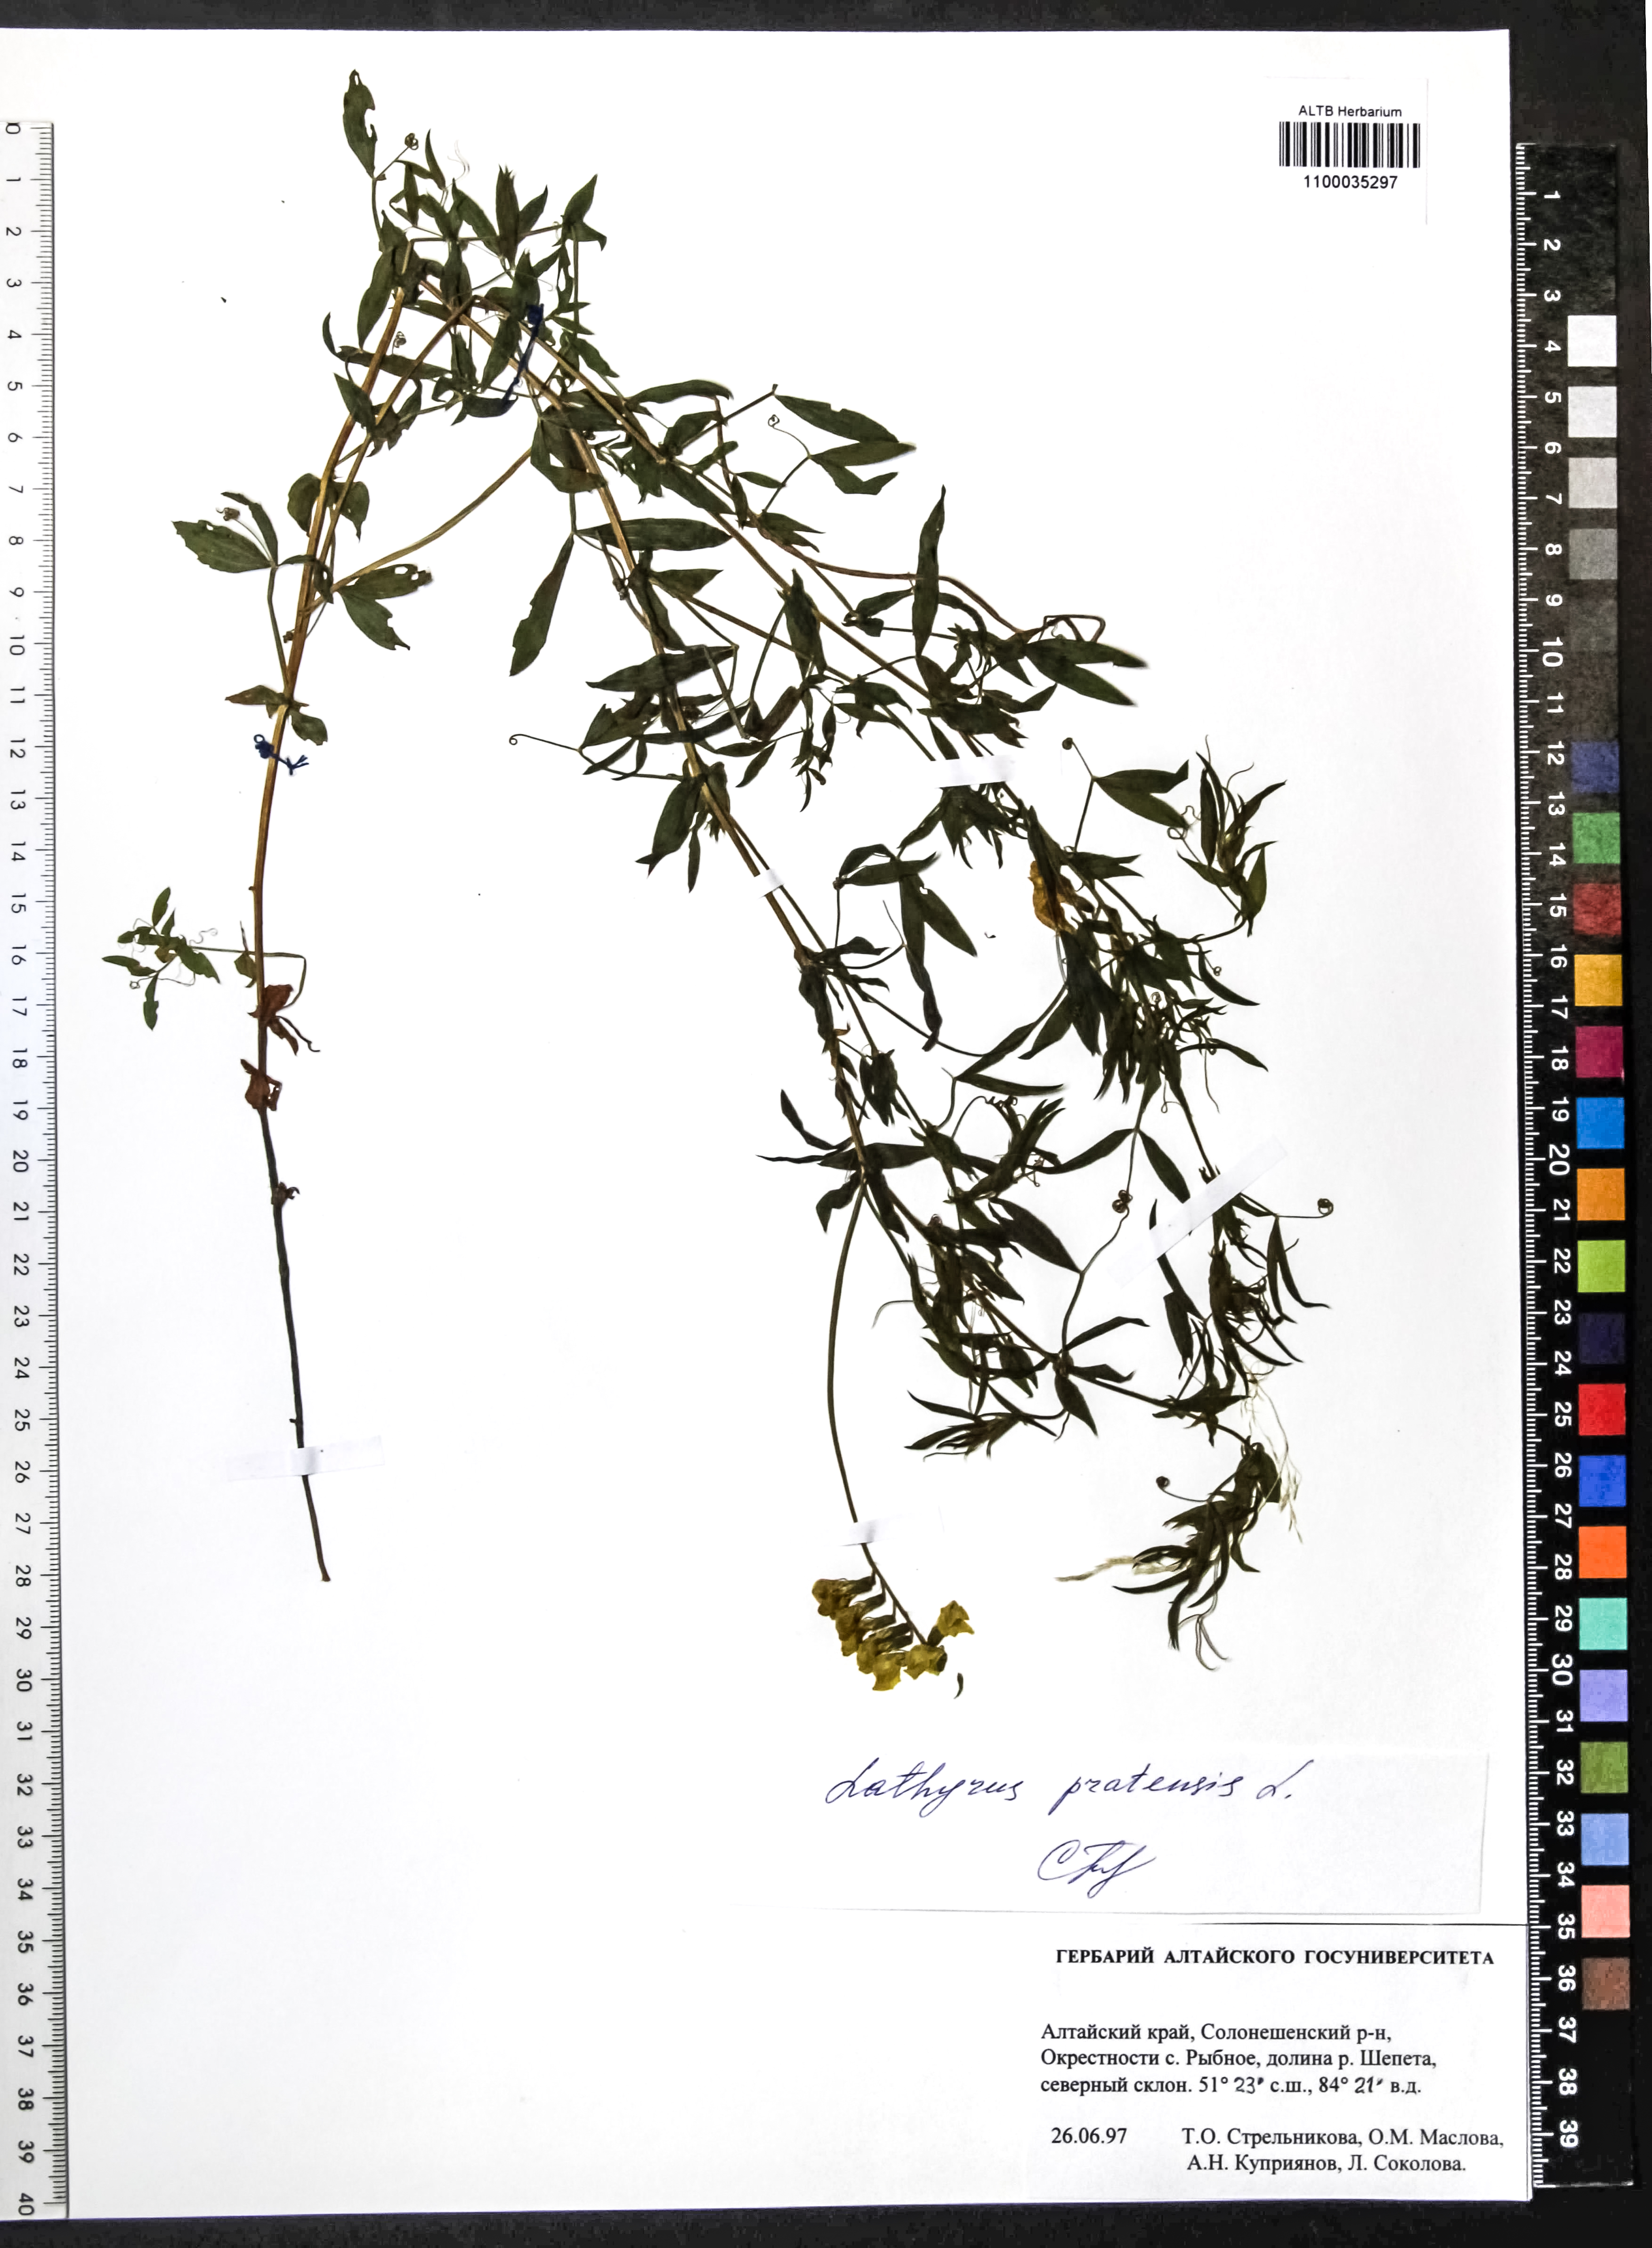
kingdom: Plantae
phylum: Tracheophyta
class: Magnoliopsida
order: Fabales
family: Fabaceae
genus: Lathyrus
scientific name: Lathyrus pratensis
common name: Meadow vetchling
